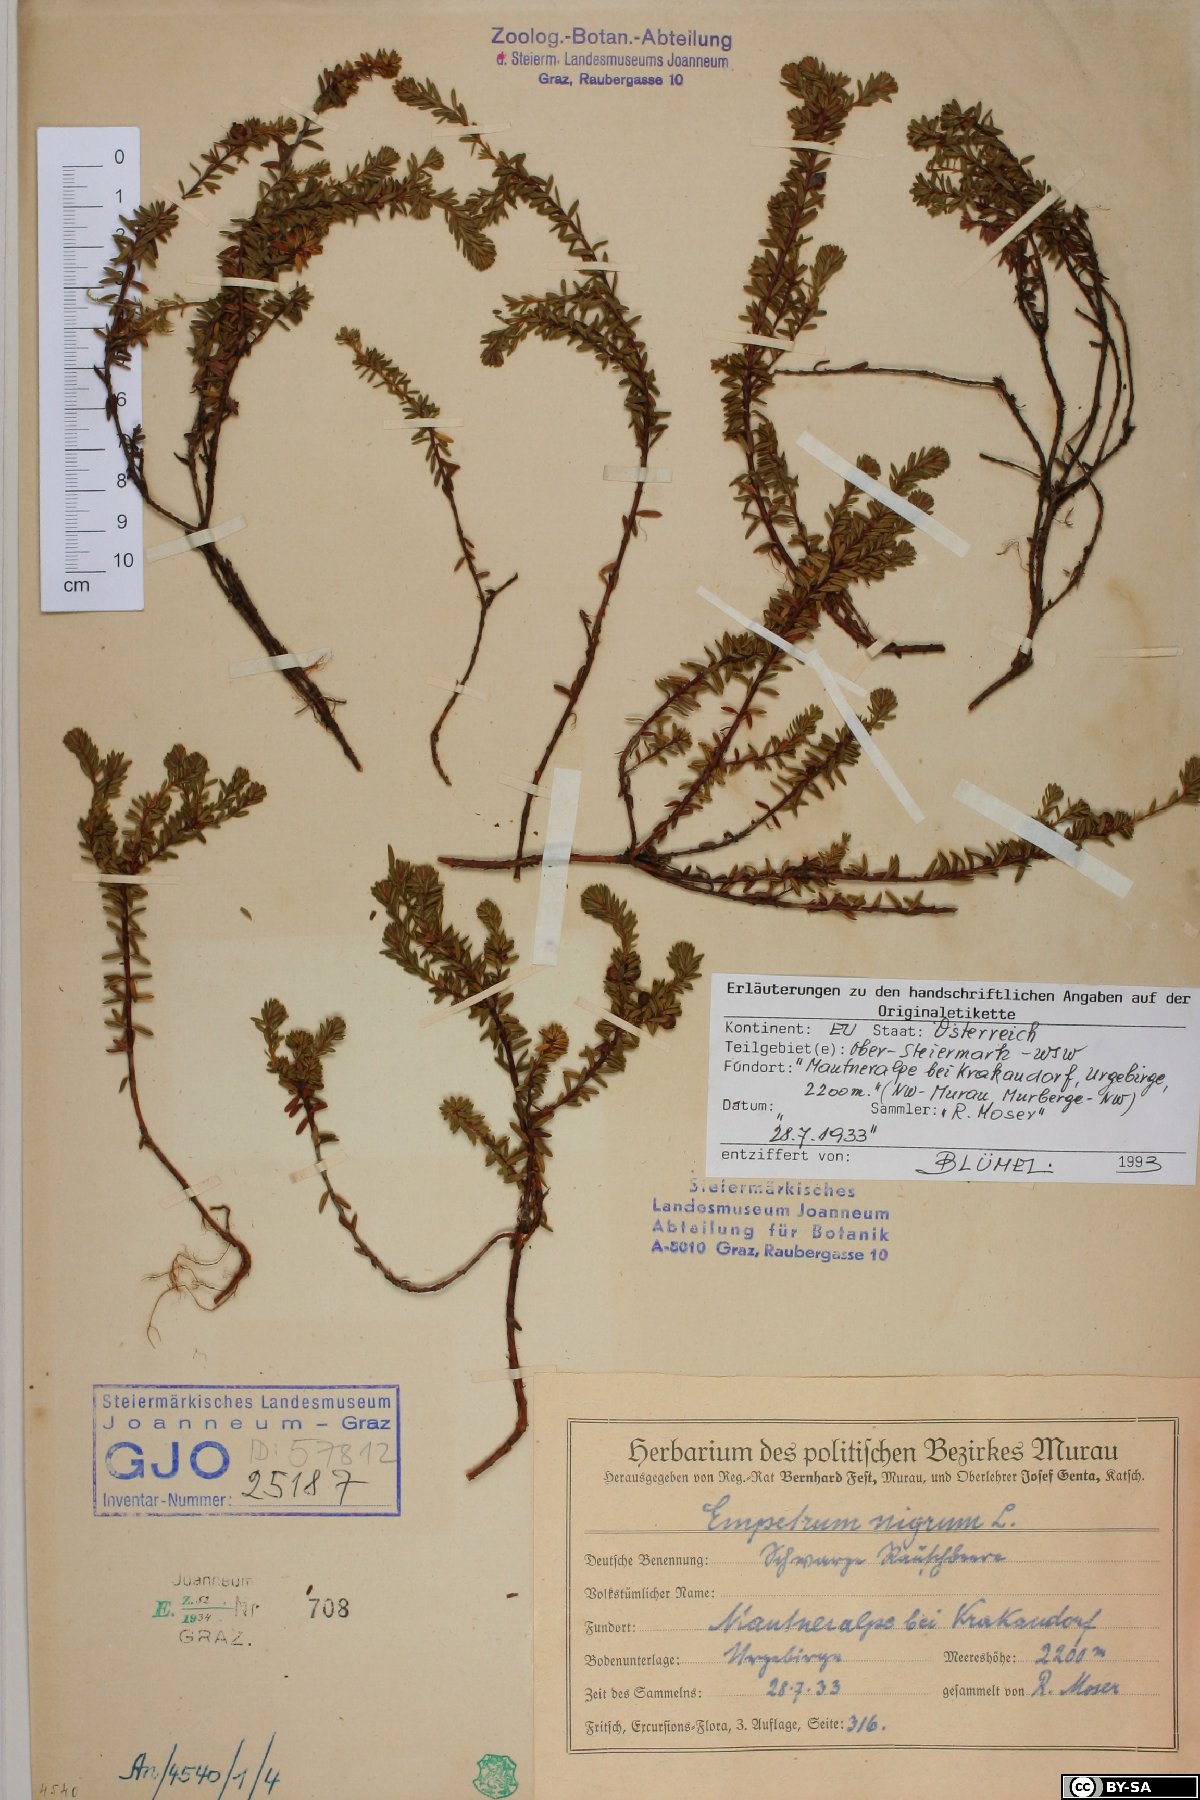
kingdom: Plantae
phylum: Tracheophyta
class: Magnoliopsida
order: Ericales
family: Ericaceae
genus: Empetrum
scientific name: Empetrum hermaphroditum
